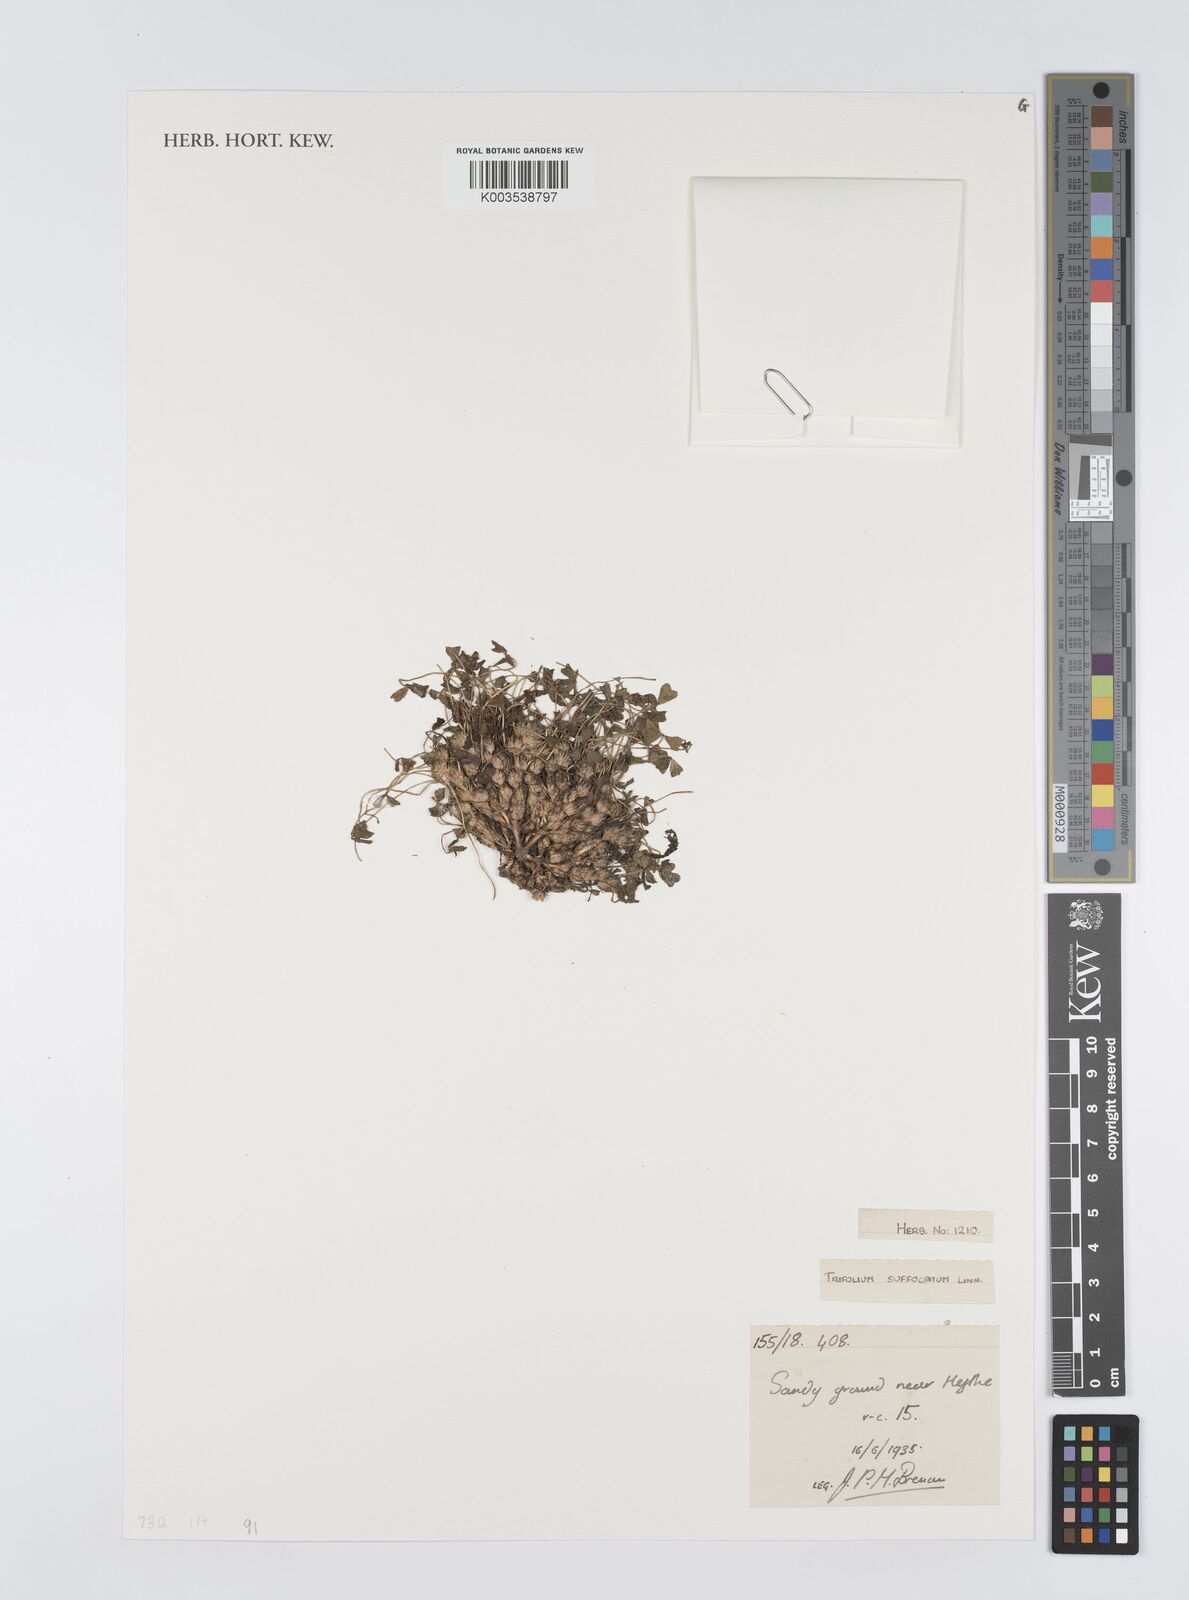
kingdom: Plantae
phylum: Tracheophyta
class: Magnoliopsida
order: Fabales
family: Fabaceae
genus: Trifolium
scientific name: Trifolium suffocatum
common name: Suffocated clover
